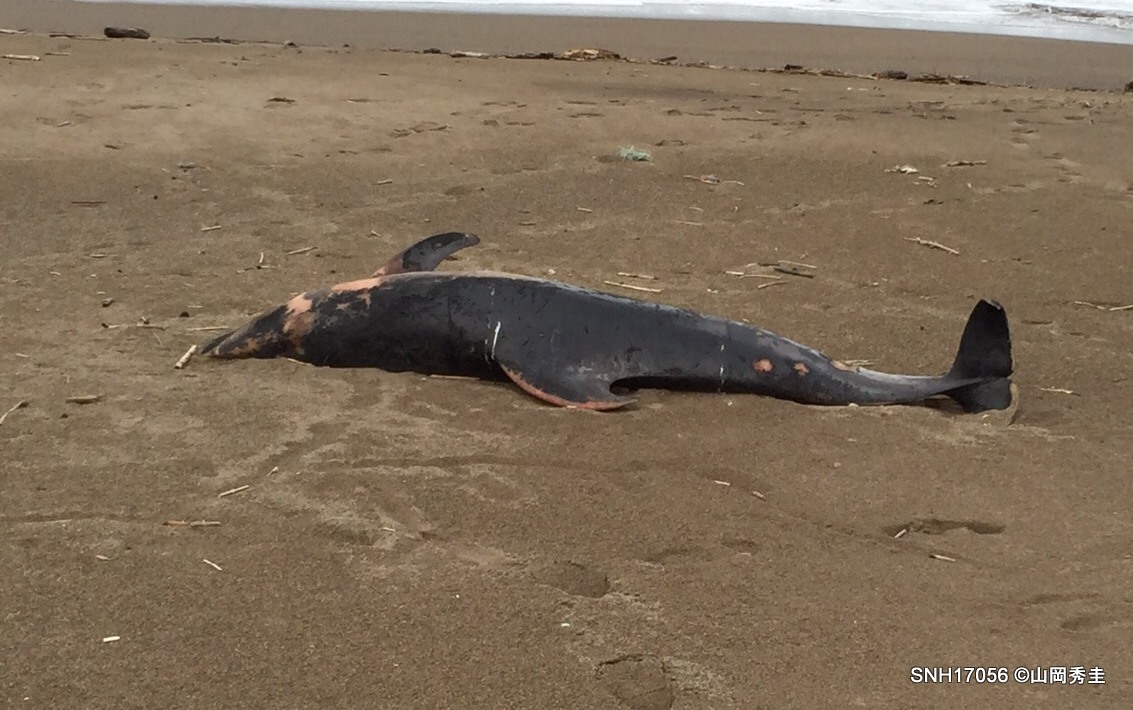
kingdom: Animalia
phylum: Chordata
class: Mammalia
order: Cetacea
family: Delphinidae
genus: Lagenorhynchus
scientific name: Lagenorhynchus obliquidens
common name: Pacific white-sided dolphin
